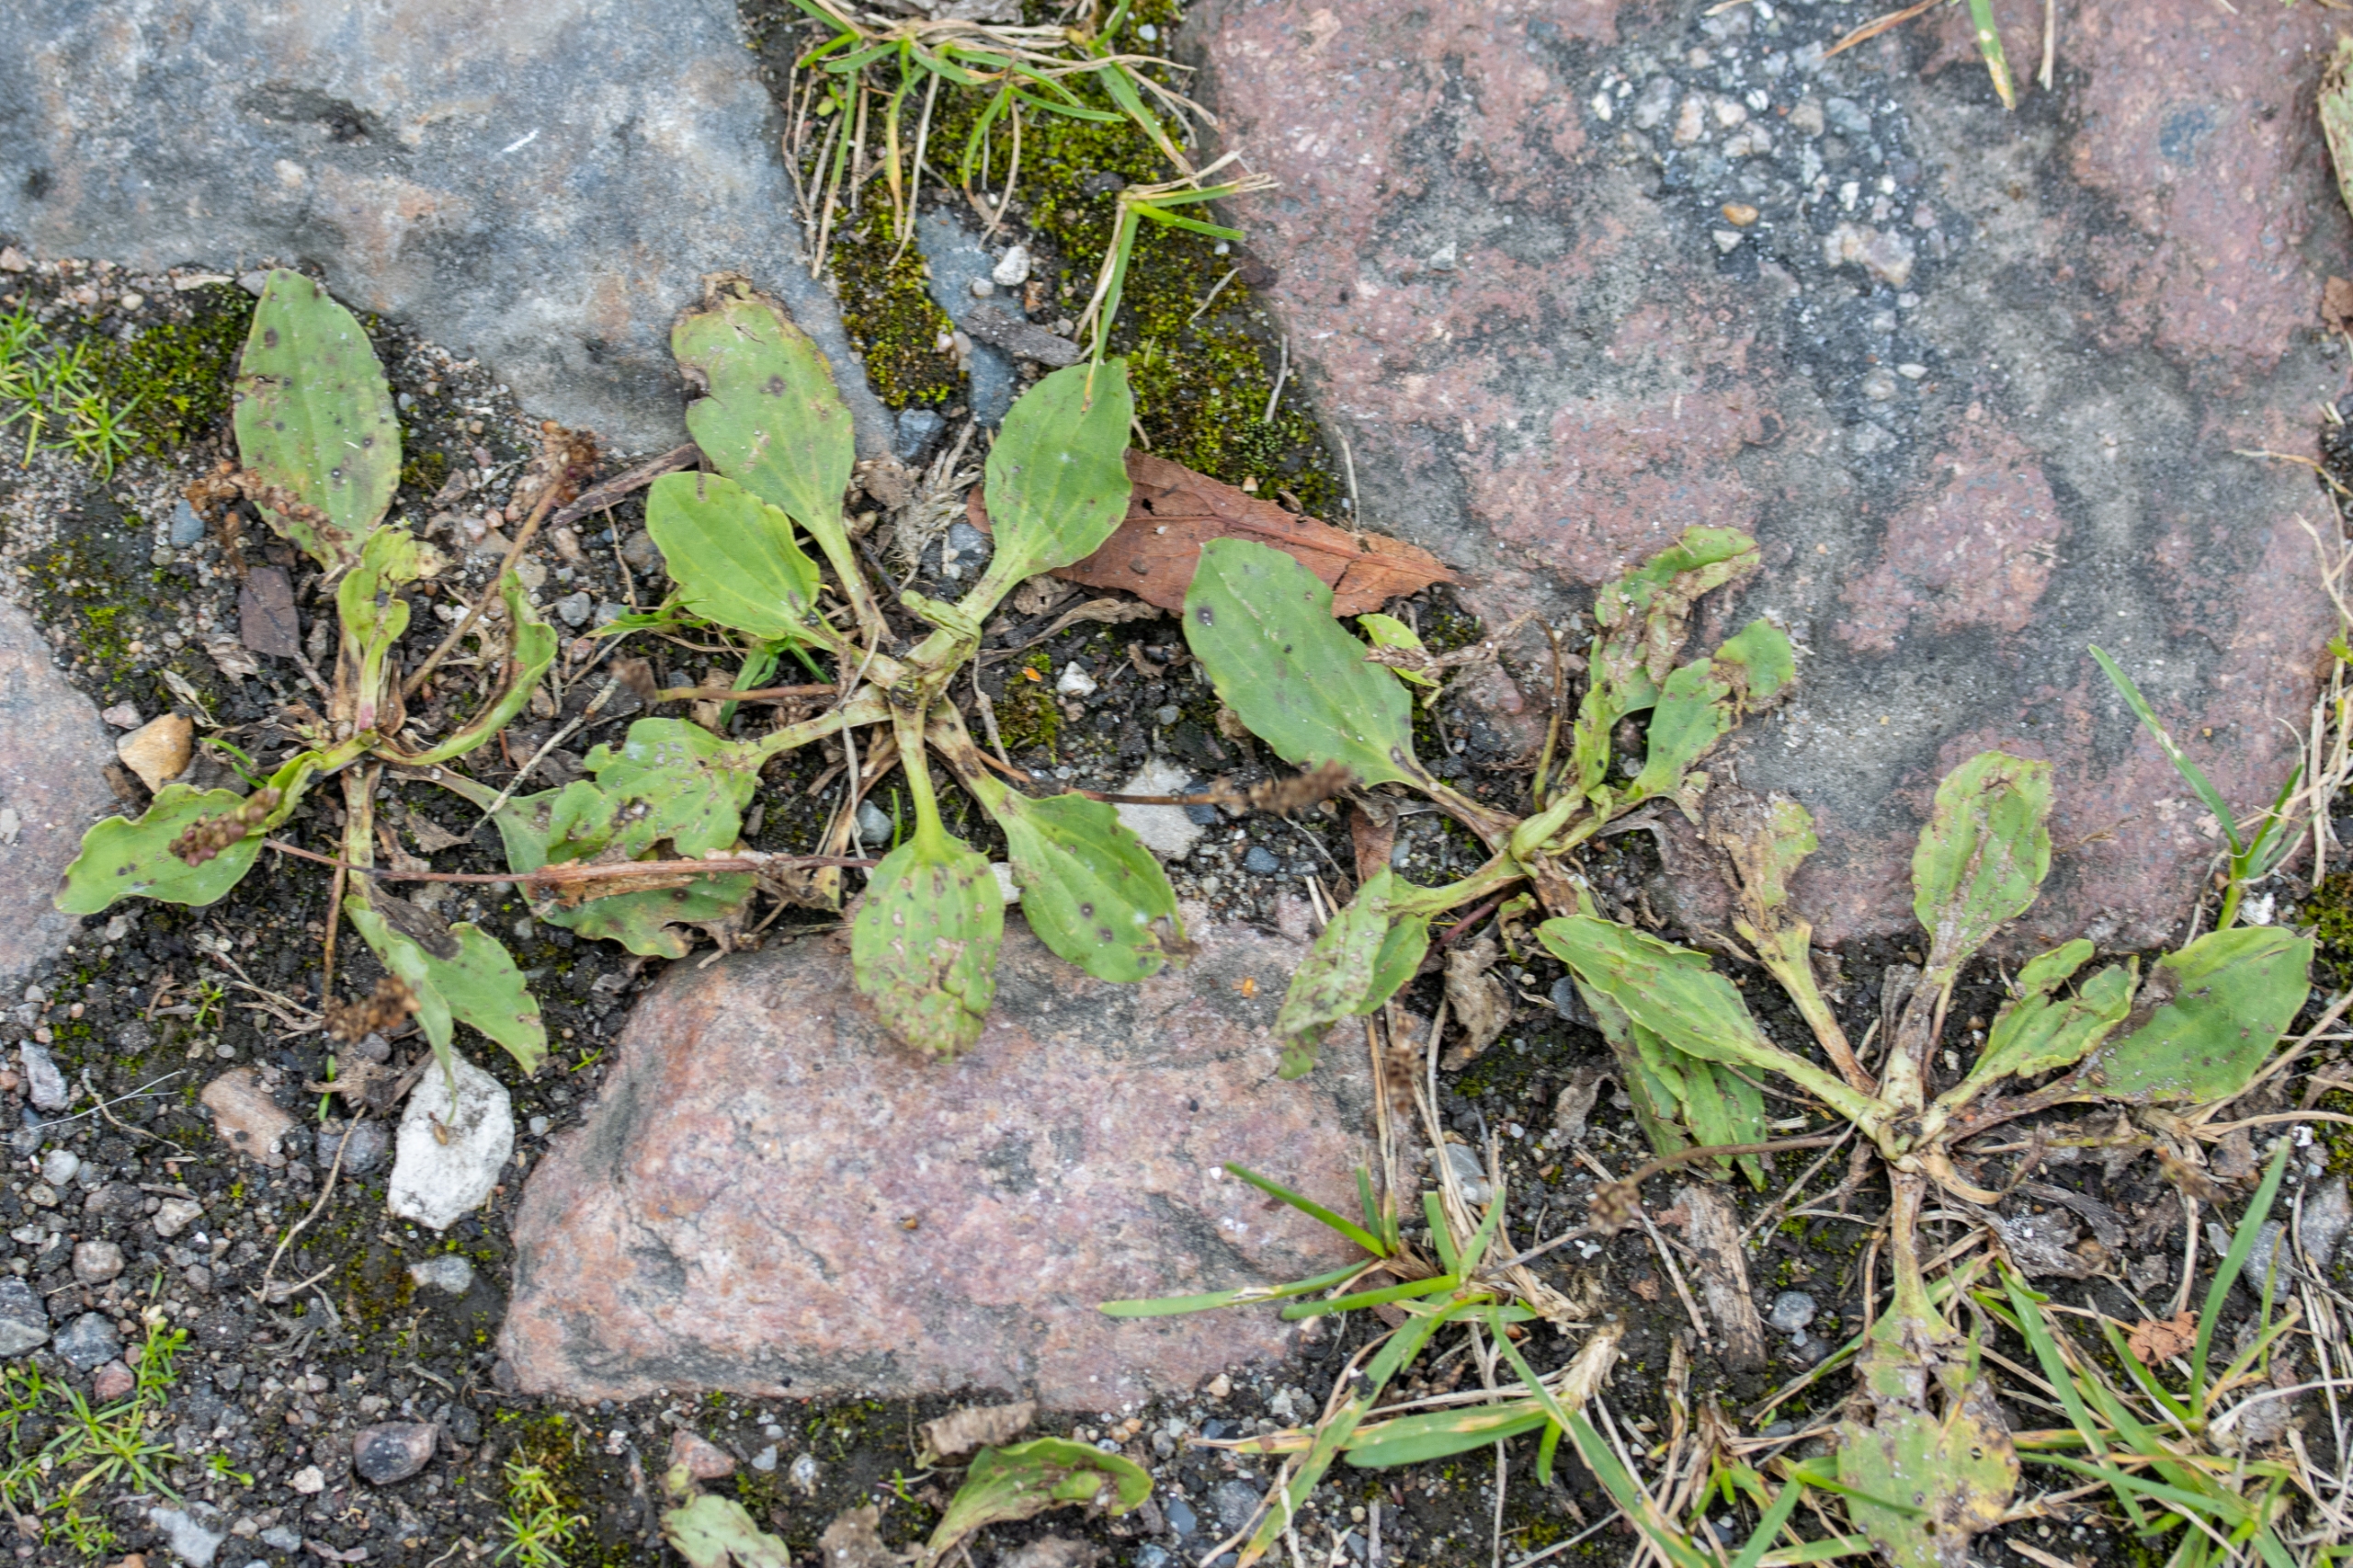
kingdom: Plantae
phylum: Tracheophyta
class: Magnoliopsida
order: Lamiales
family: Plantaginaceae
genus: Plantago
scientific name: Plantago major
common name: Glat vejbred
